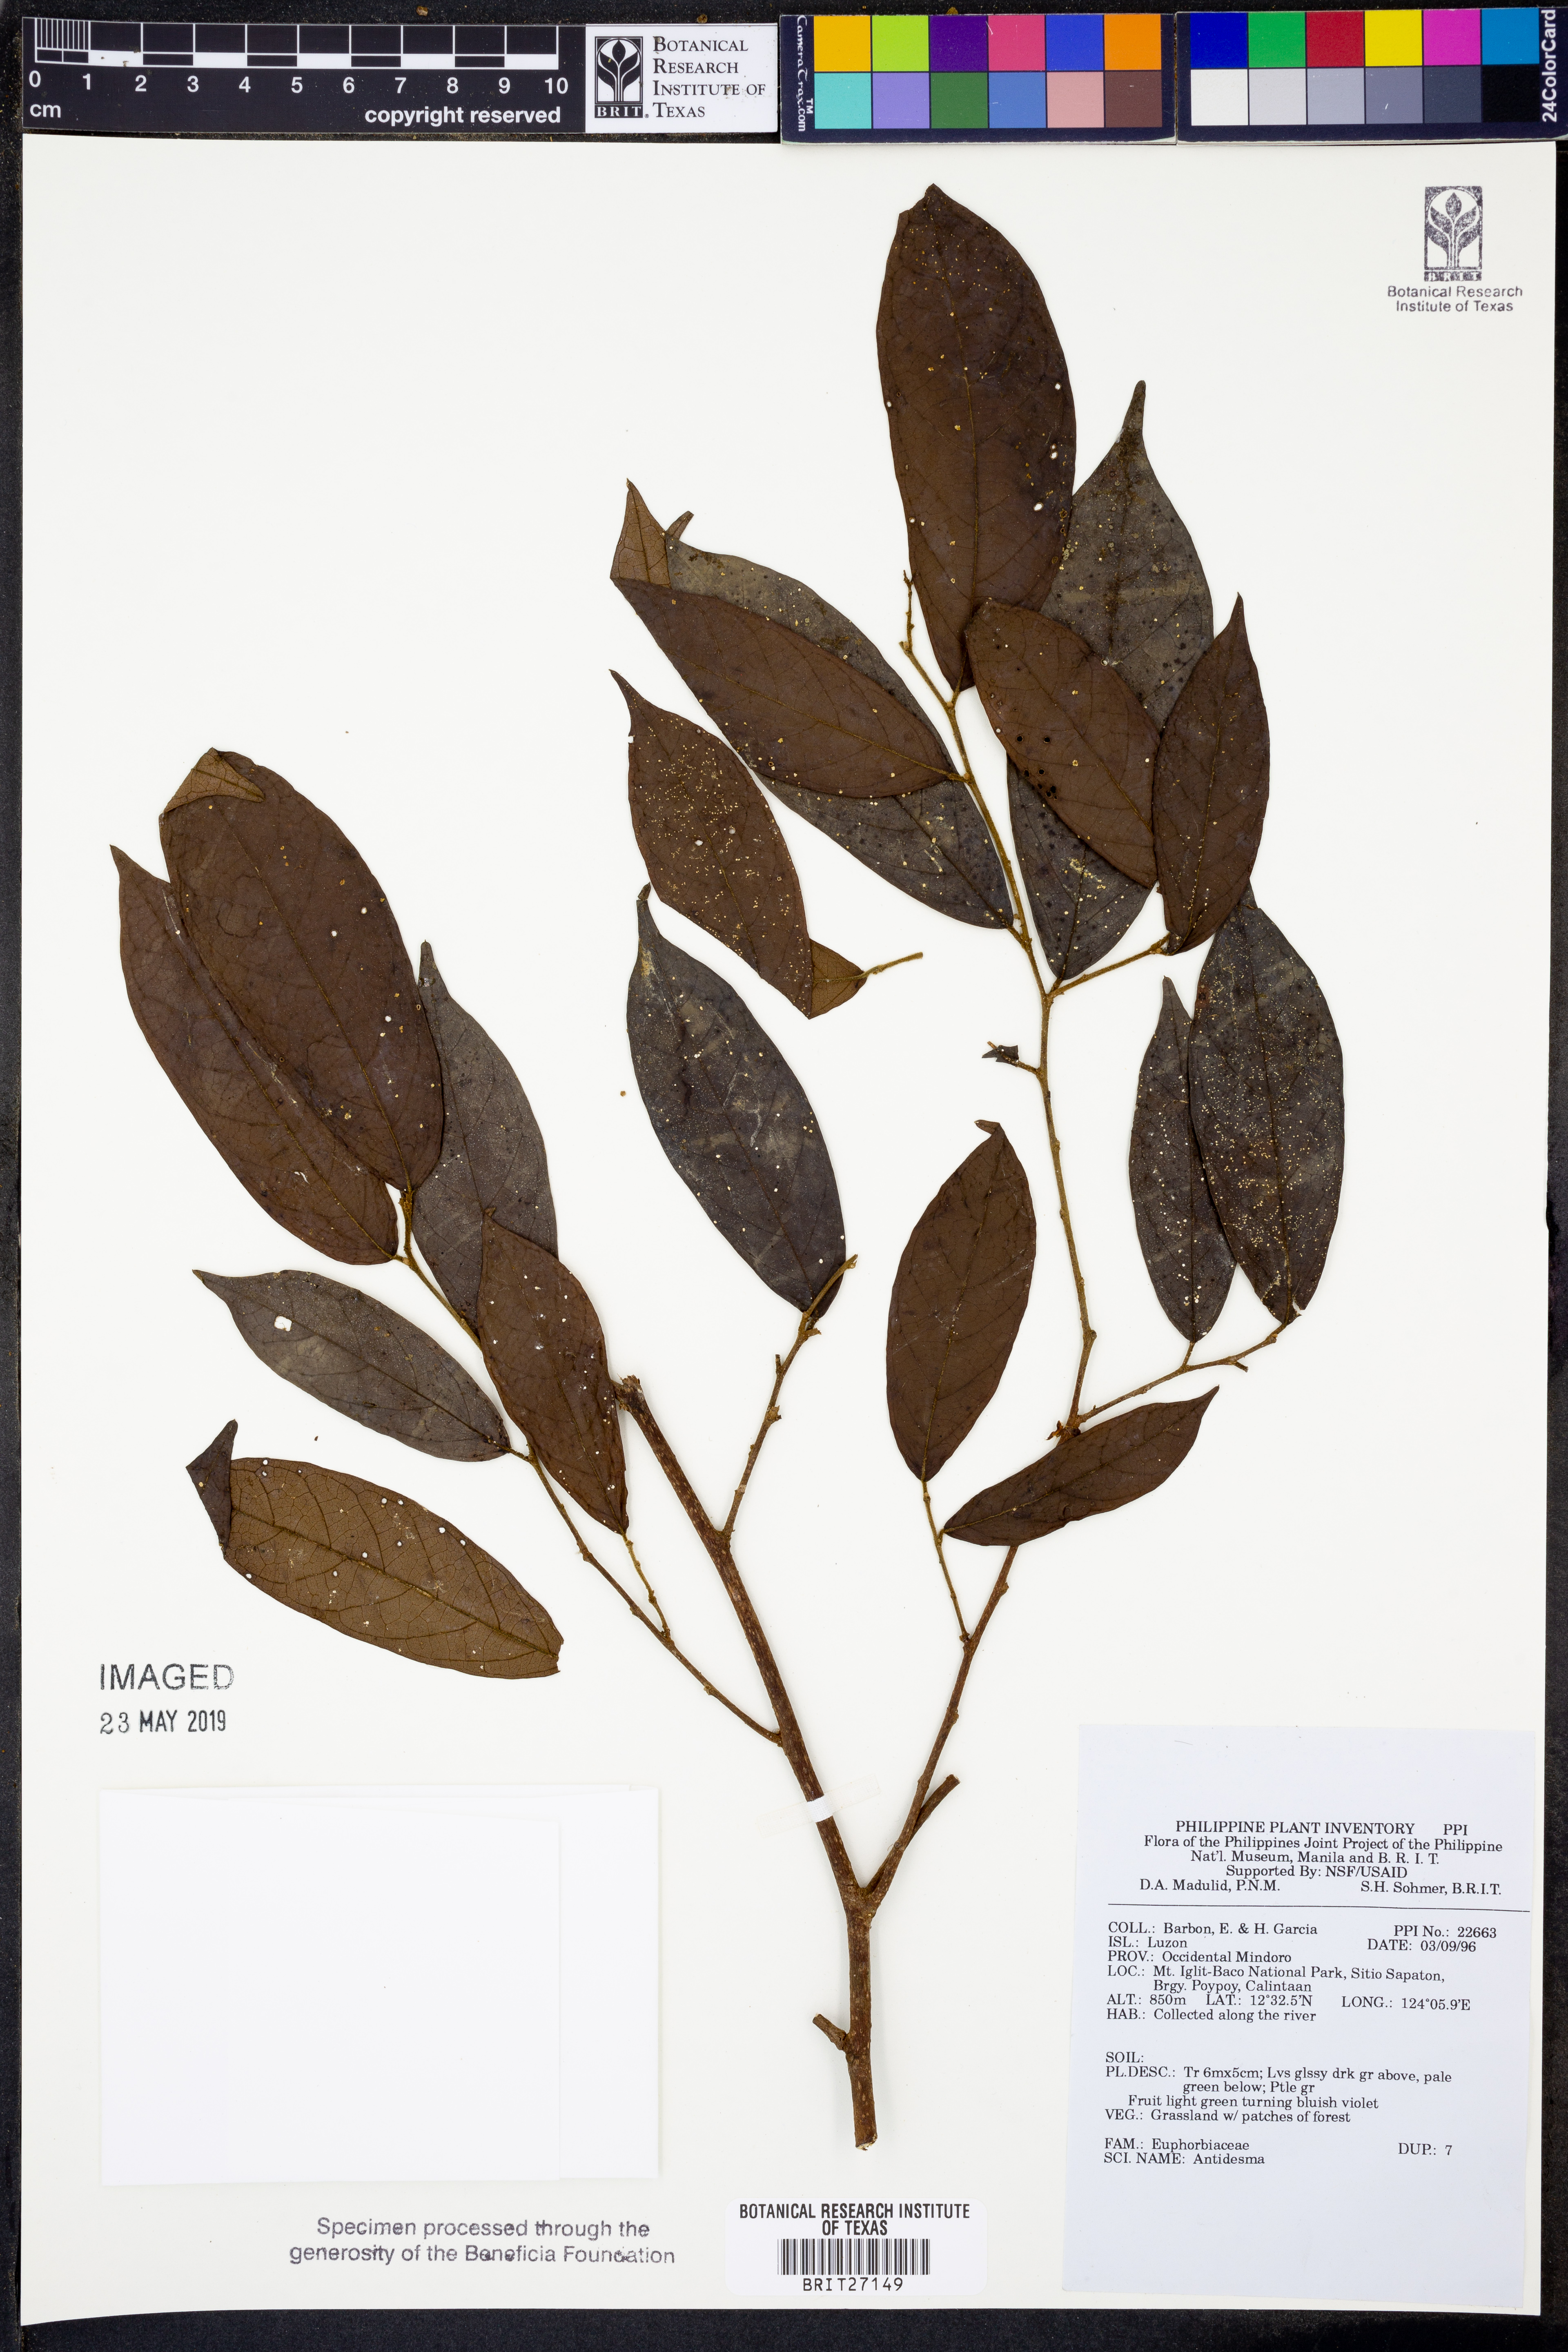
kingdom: Plantae
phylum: Tracheophyta
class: Magnoliopsida
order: Malpighiales
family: Phyllanthaceae
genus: Antidesma
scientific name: Antidesma
